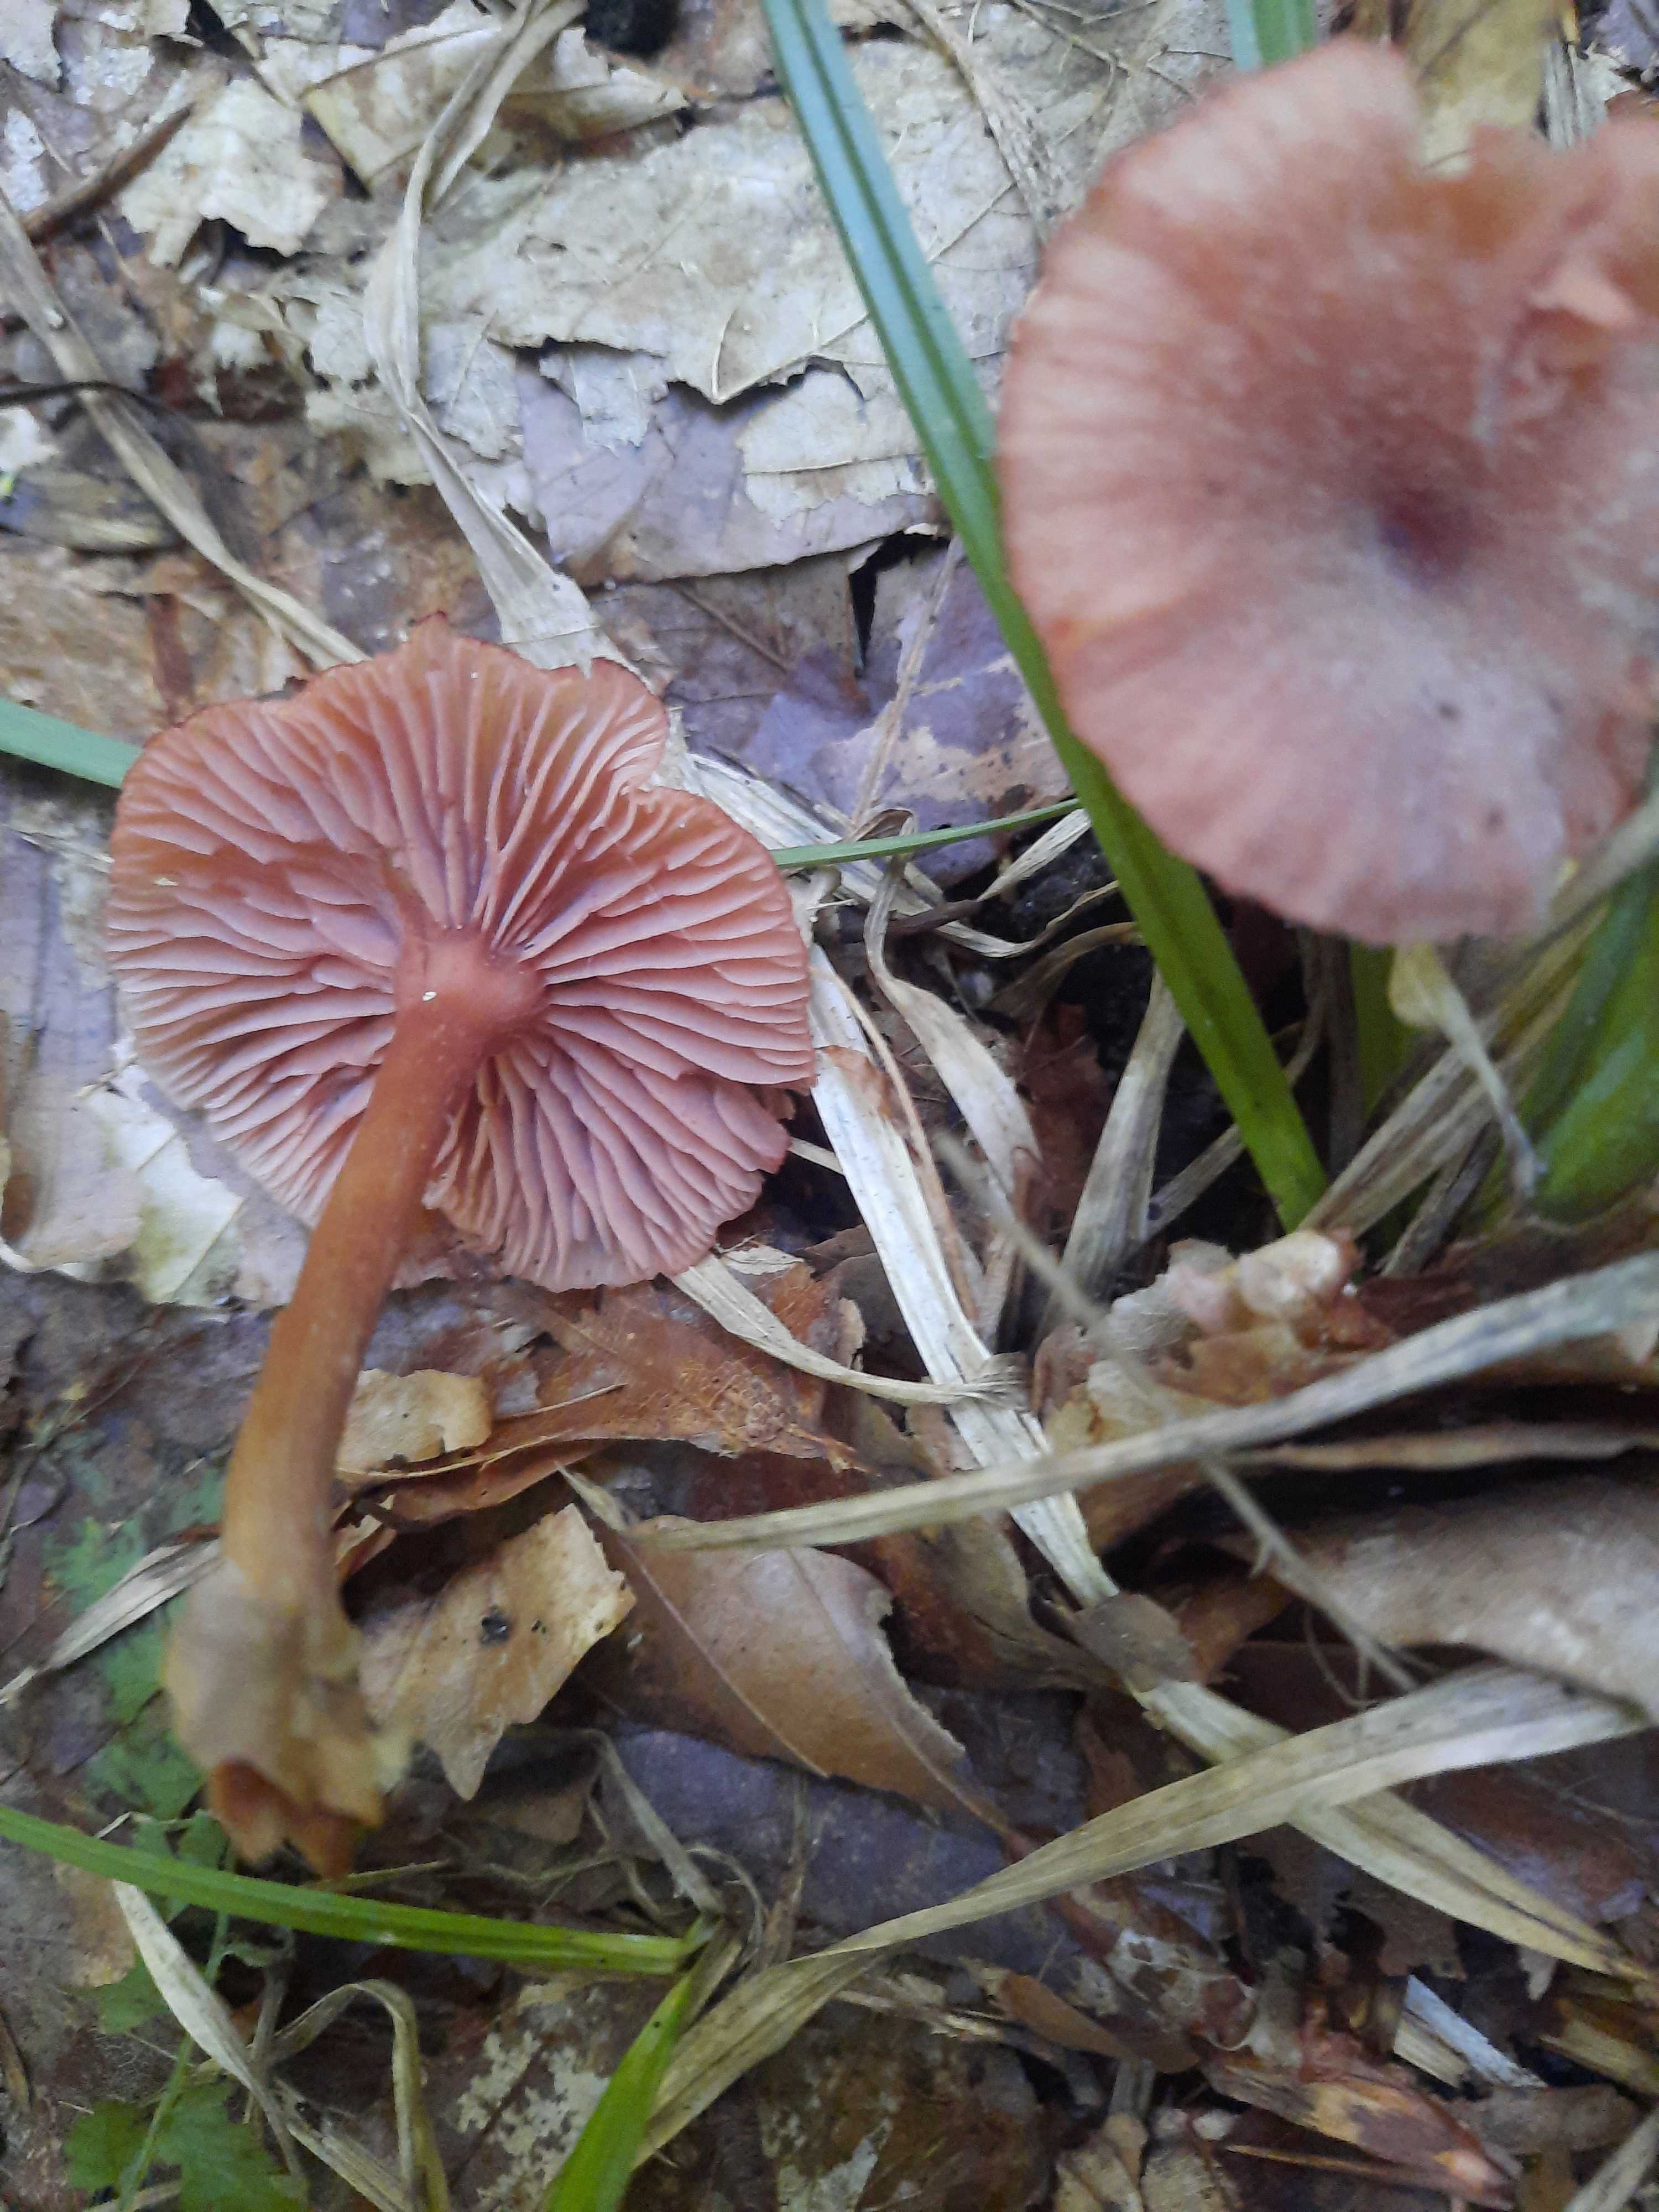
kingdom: Fungi
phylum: Basidiomycota
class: Agaricomycetes
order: Agaricales
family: Hydnangiaceae
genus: Laccaria
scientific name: Laccaria laccata
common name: rød ametysthat
